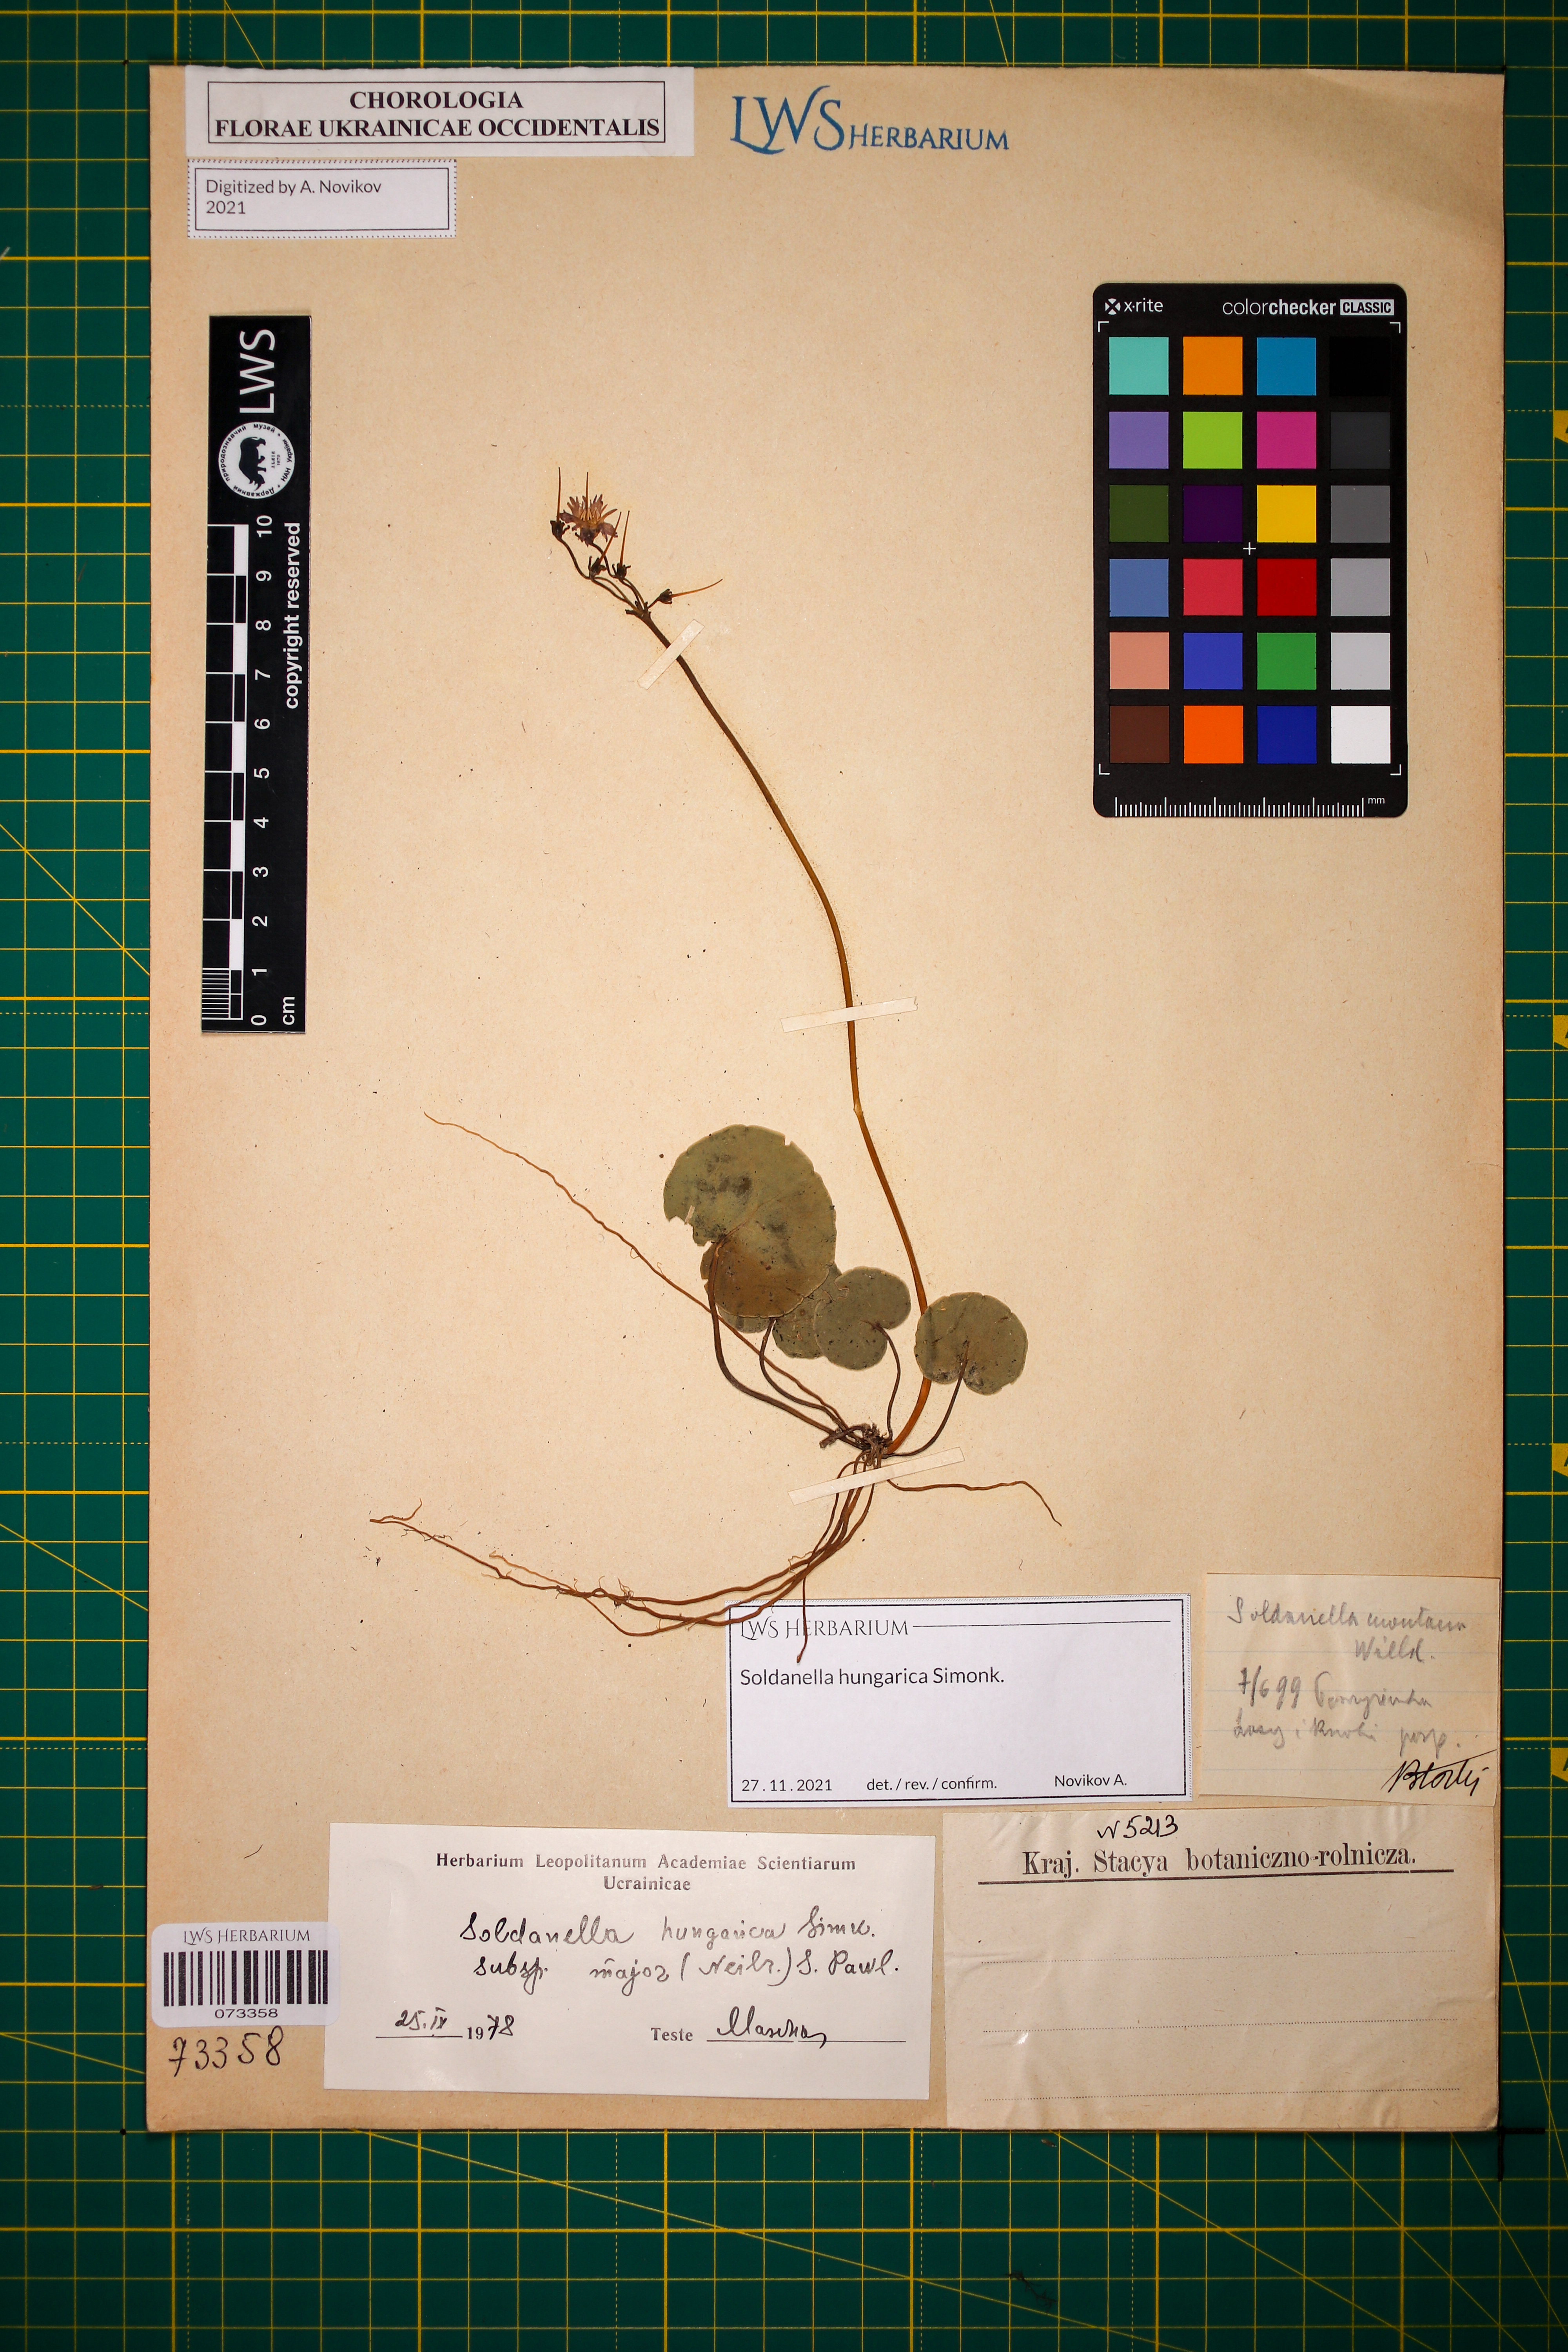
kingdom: Plantae
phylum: Tracheophyta
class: Magnoliopsida
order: Ericales
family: Primulaceae
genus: Soldanella
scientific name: Soldanella hungarica
